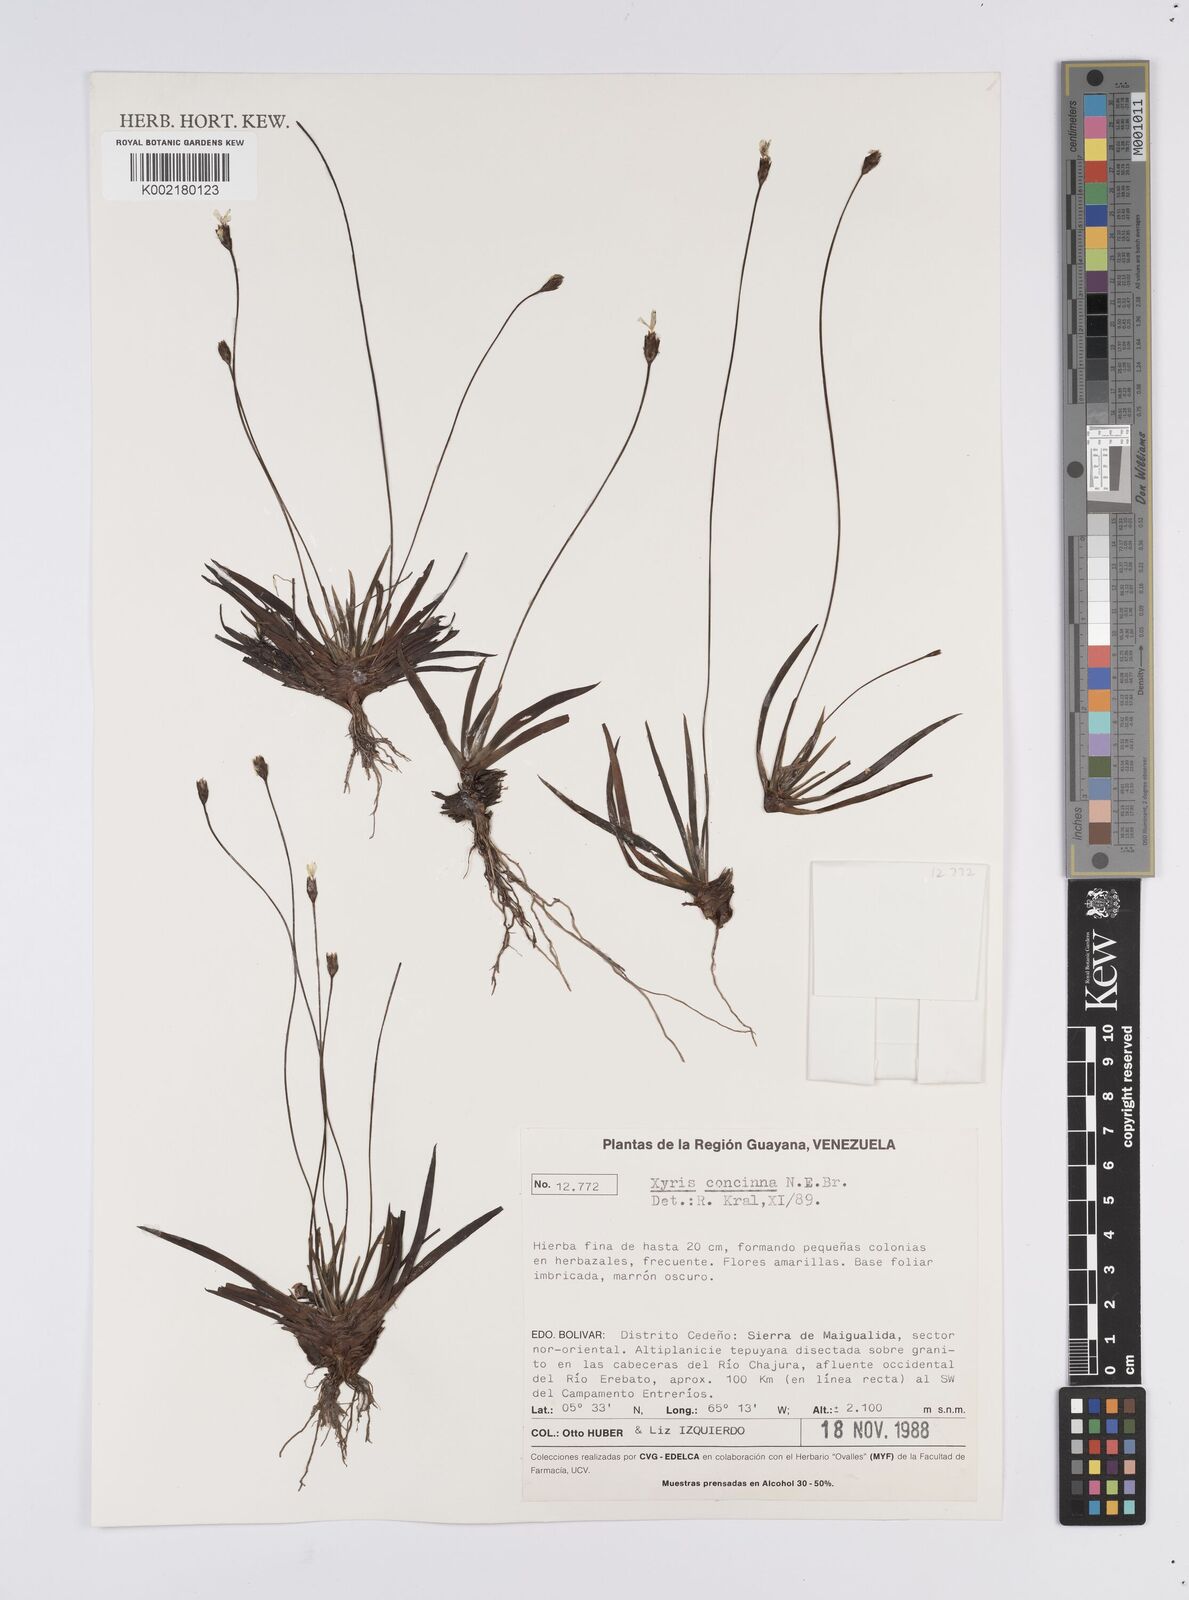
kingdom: Plantae
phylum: Tracheophyta
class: Liliopsida
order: Poales
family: Xyridaceae
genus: Xyris
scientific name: Xyris concinna
